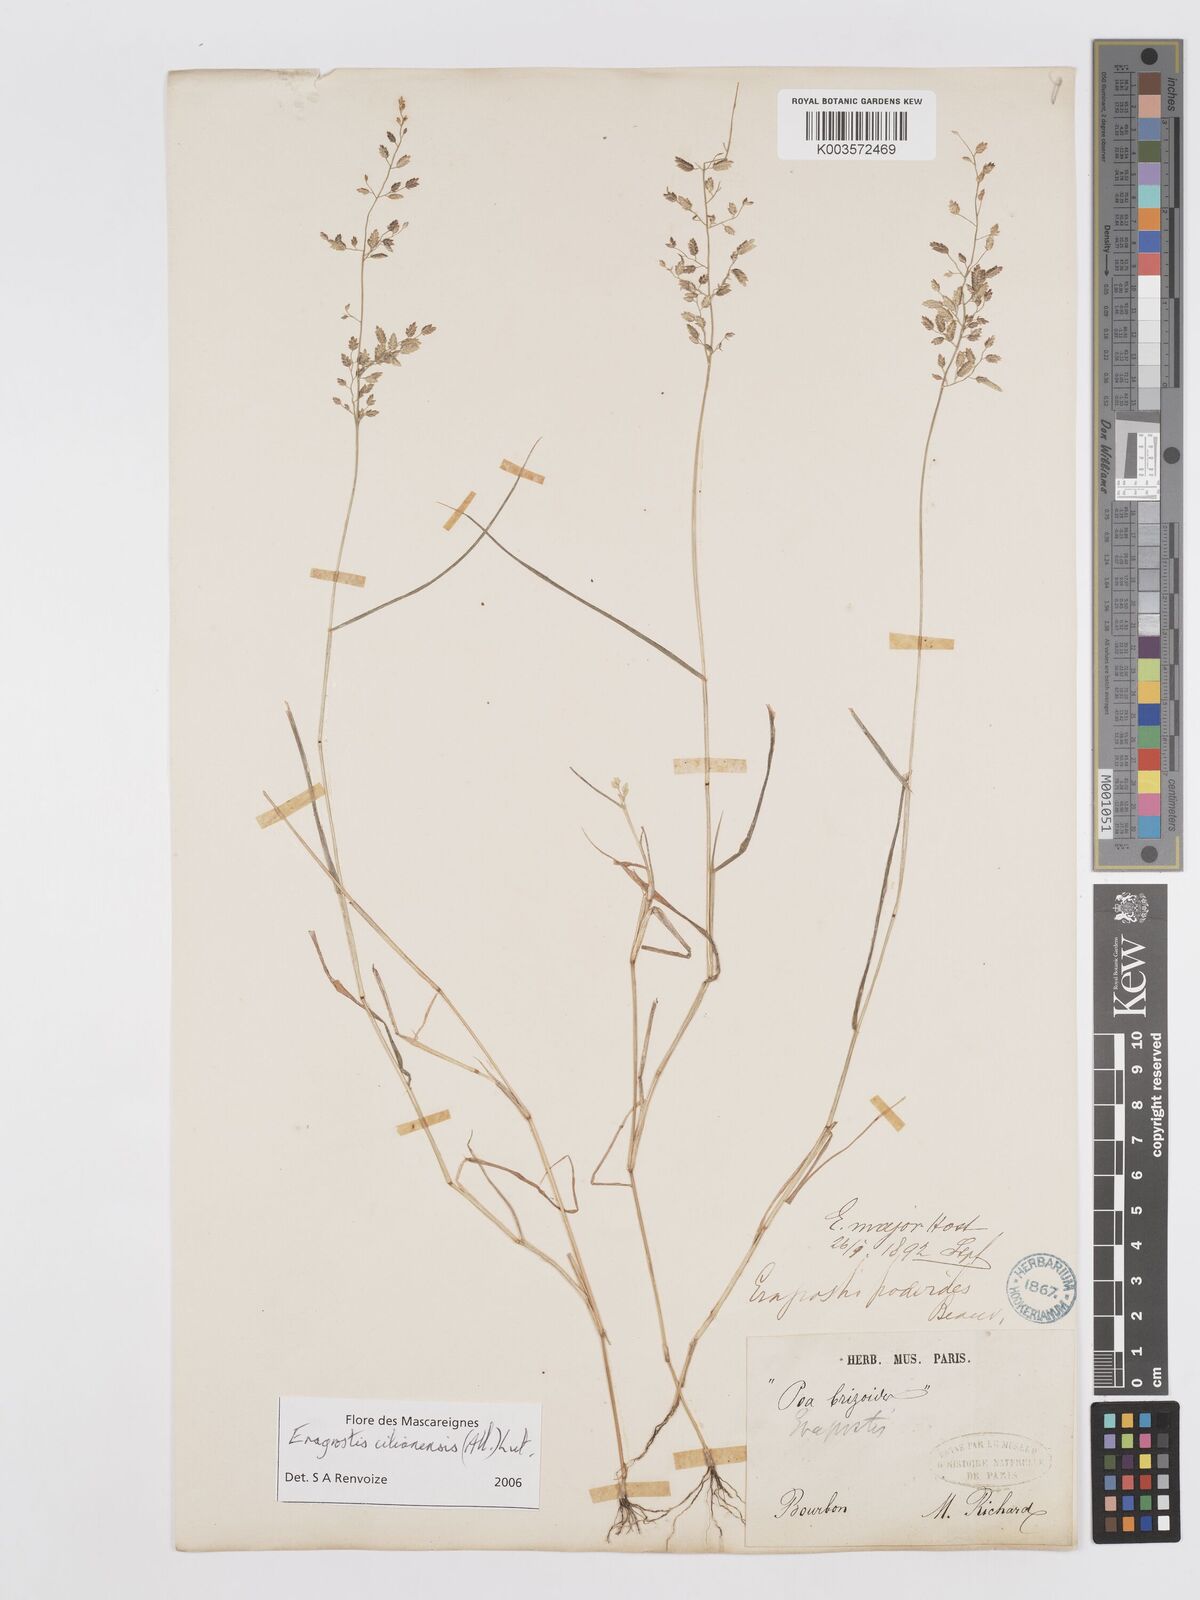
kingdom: Plantae
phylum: Tracheophyta
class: Liliopsida
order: Poales
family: Poaceae
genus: Eragrostis
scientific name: Eragrostis cilianensis
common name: Stinkgrass
